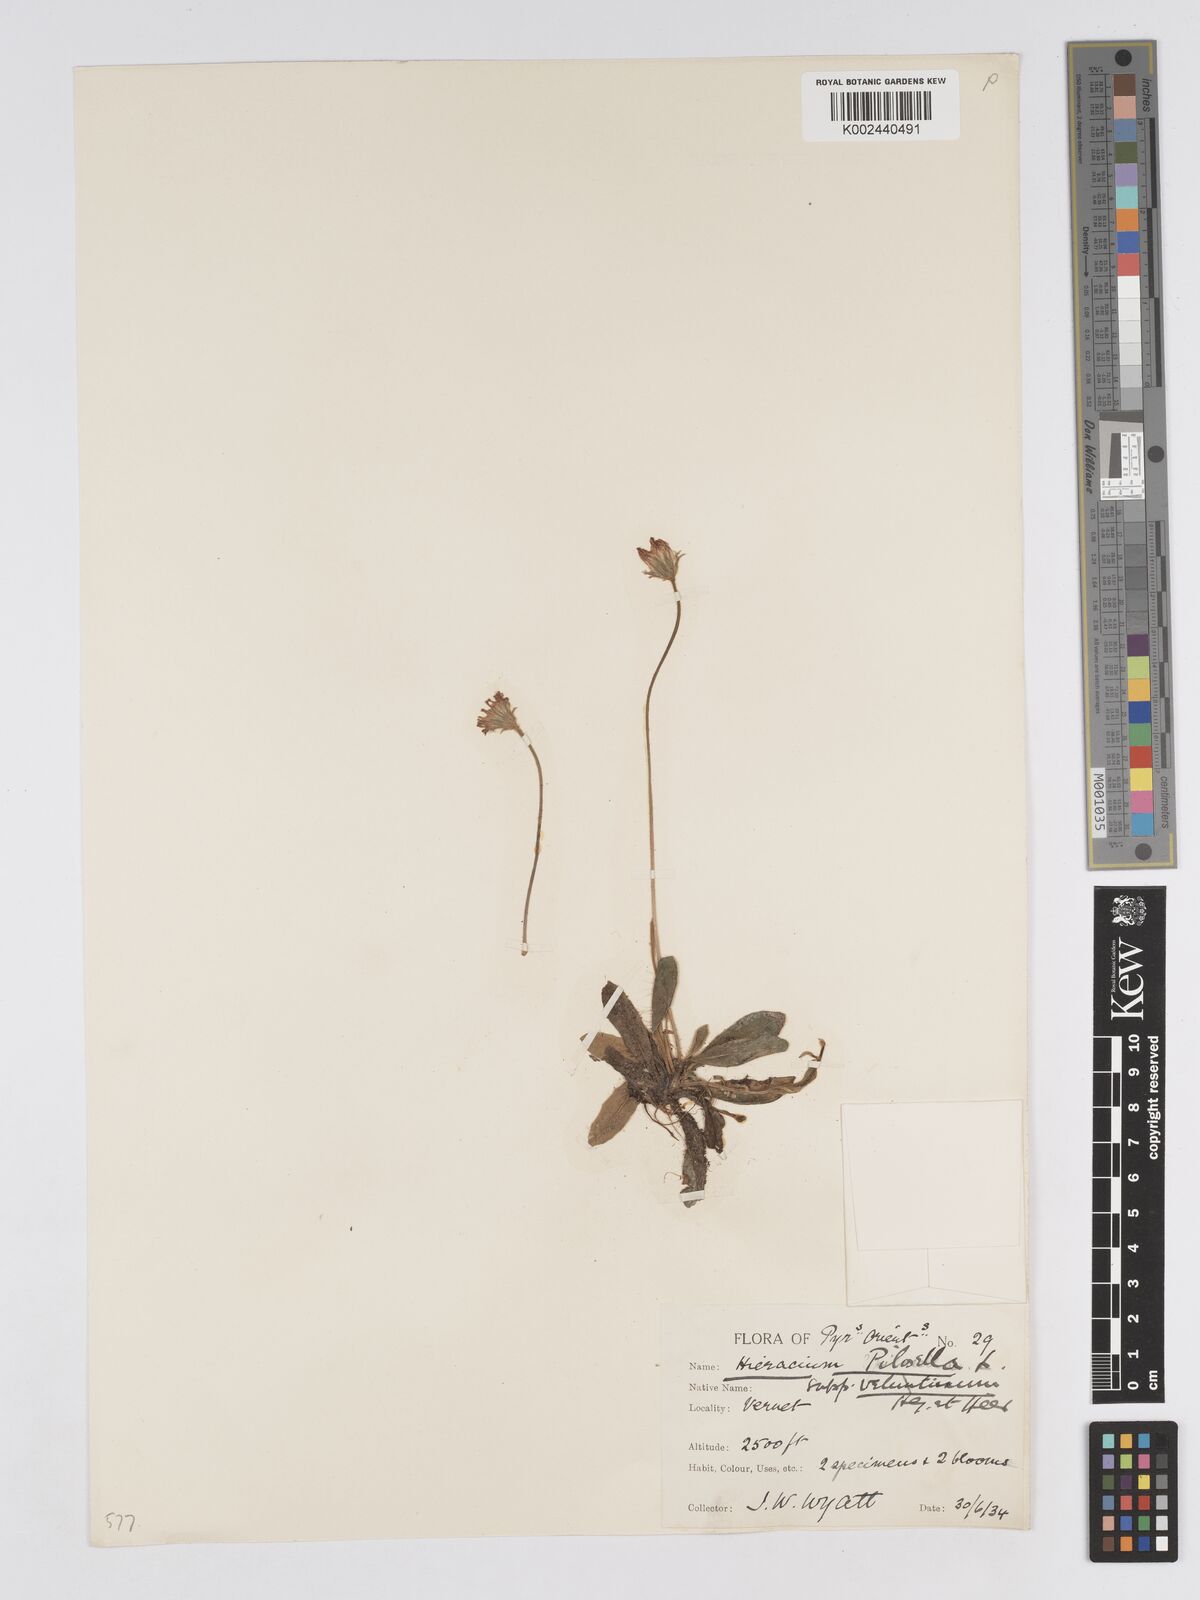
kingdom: Plantae
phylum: Tracheophyta
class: Magnoliopsida
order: Asterales
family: Asteraceae
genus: Pilosella
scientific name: Pilosella velutina
